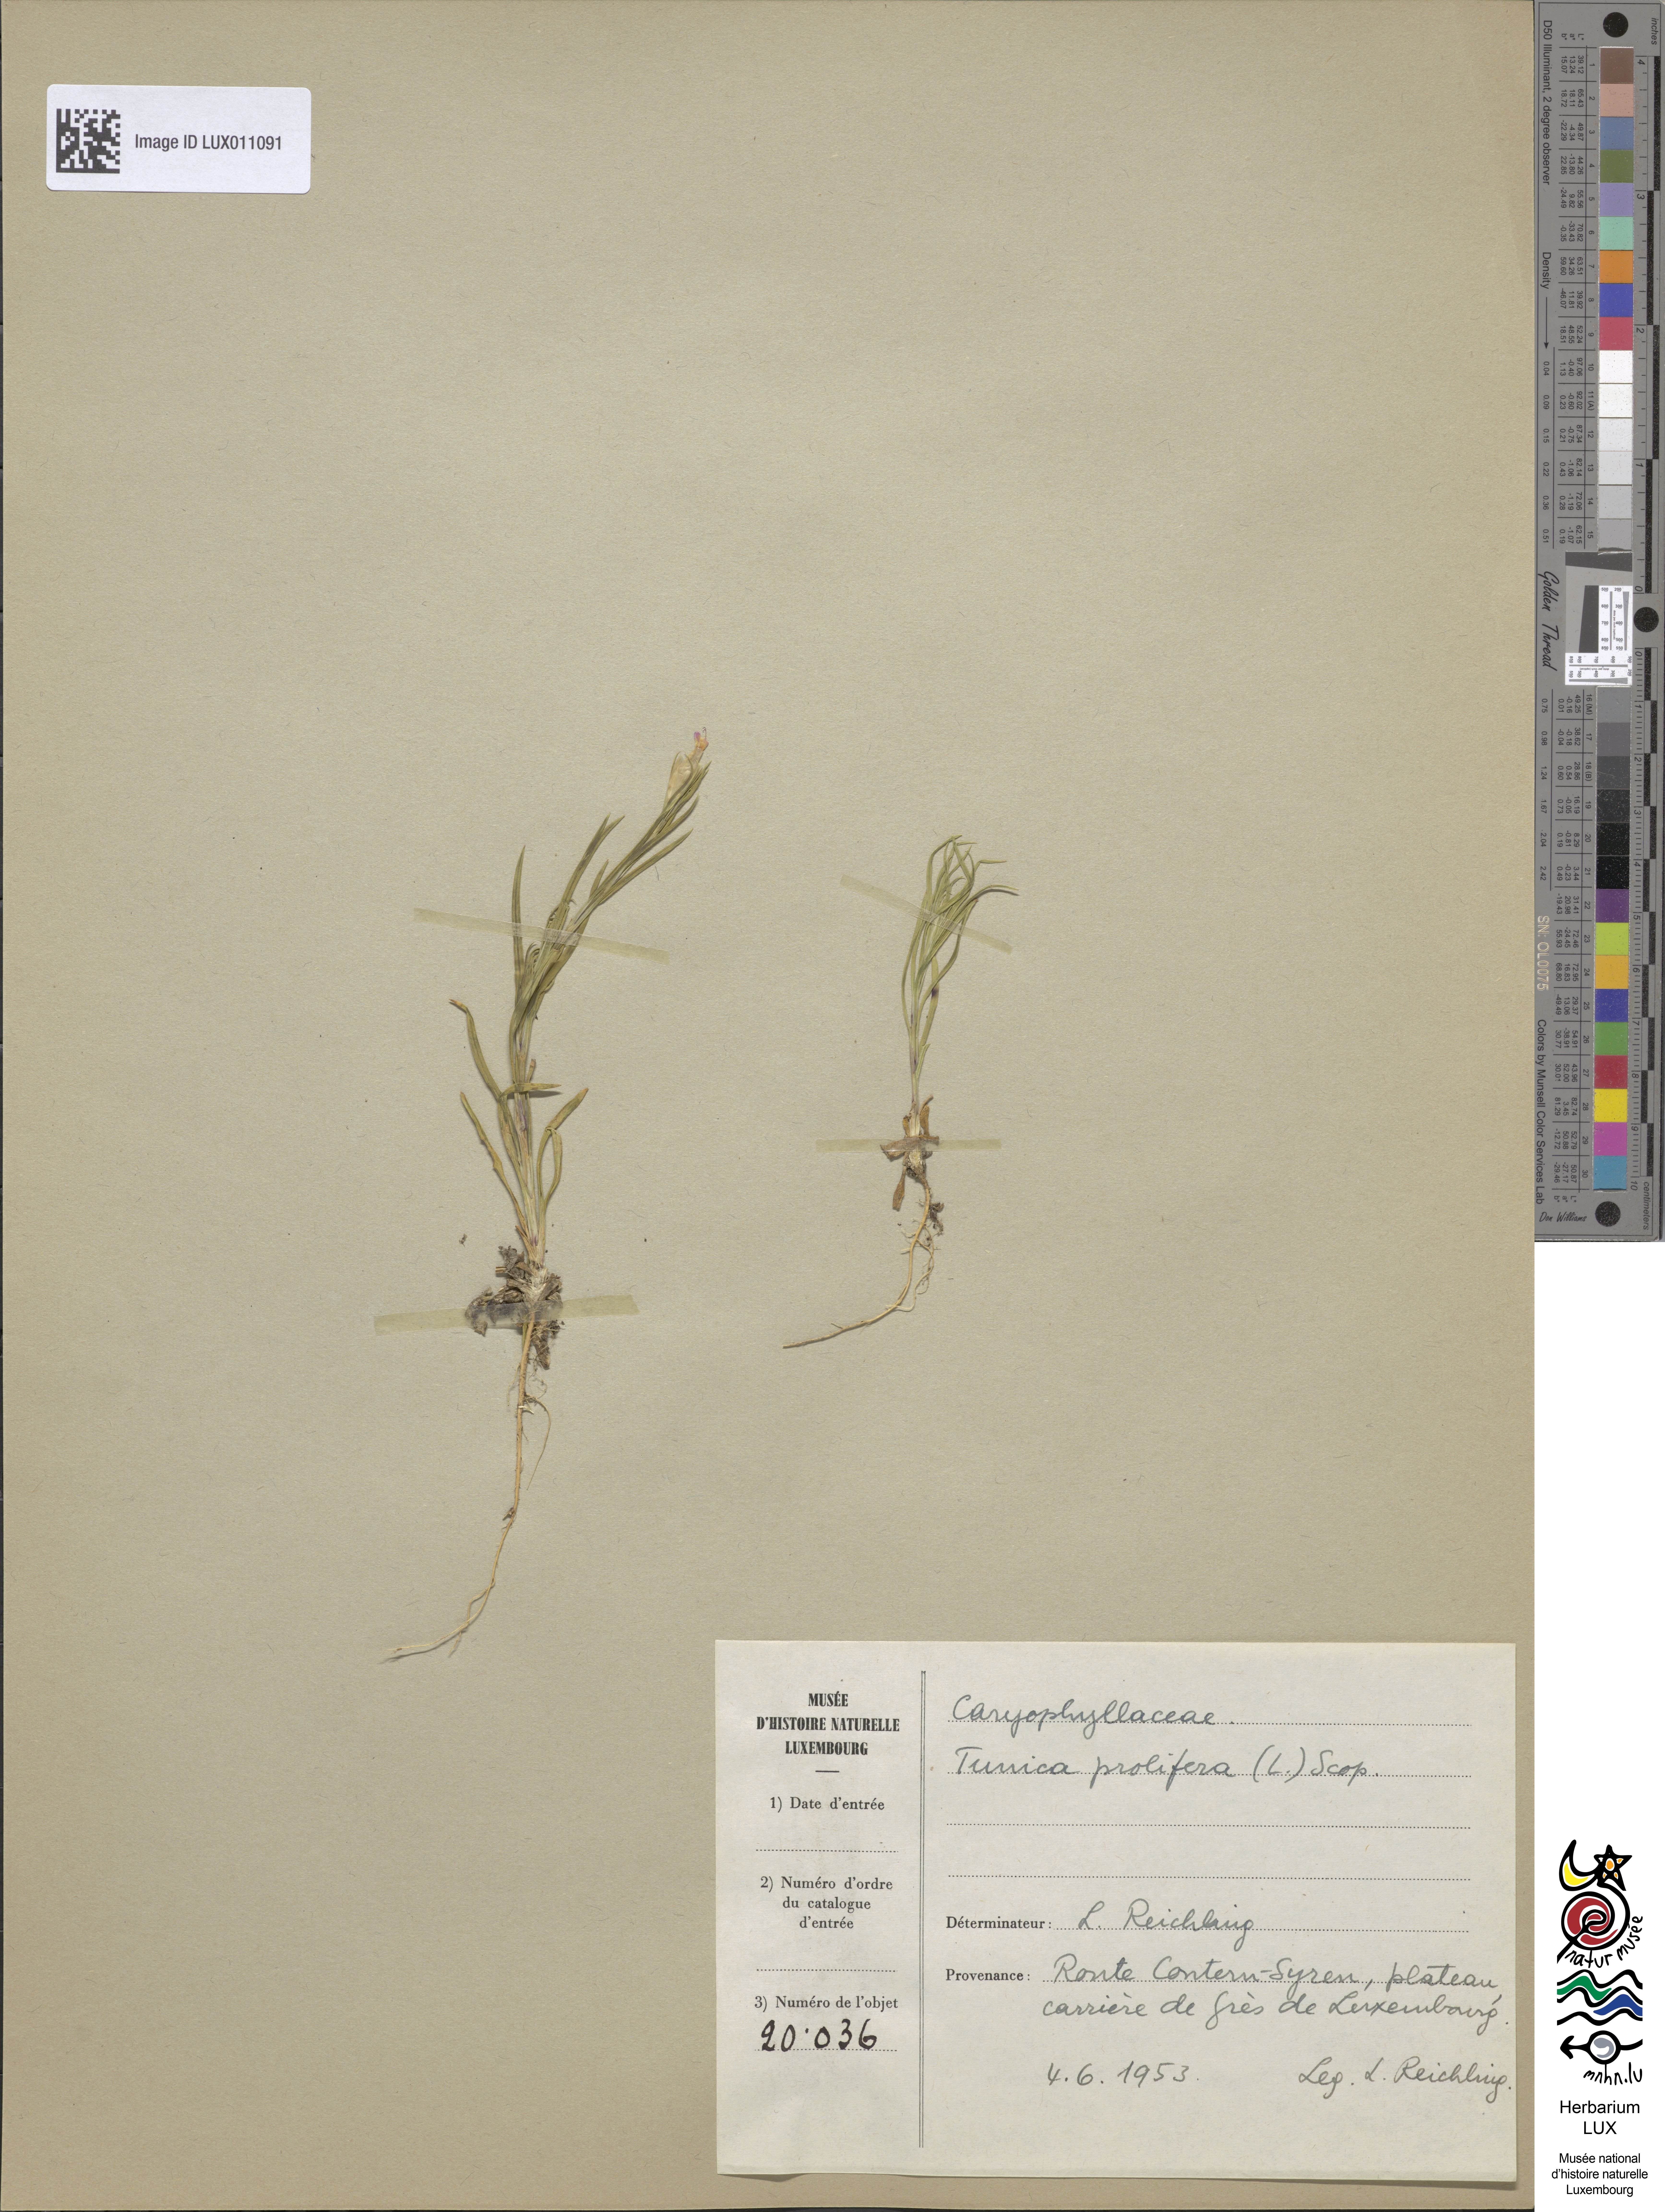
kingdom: Plantae
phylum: Tracheophyta
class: Magnoliopsida
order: Caryophyllales
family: Caryophyllaceae
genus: Petrorhagia
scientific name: Petrorhagia prolifera
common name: Proliferous pink
